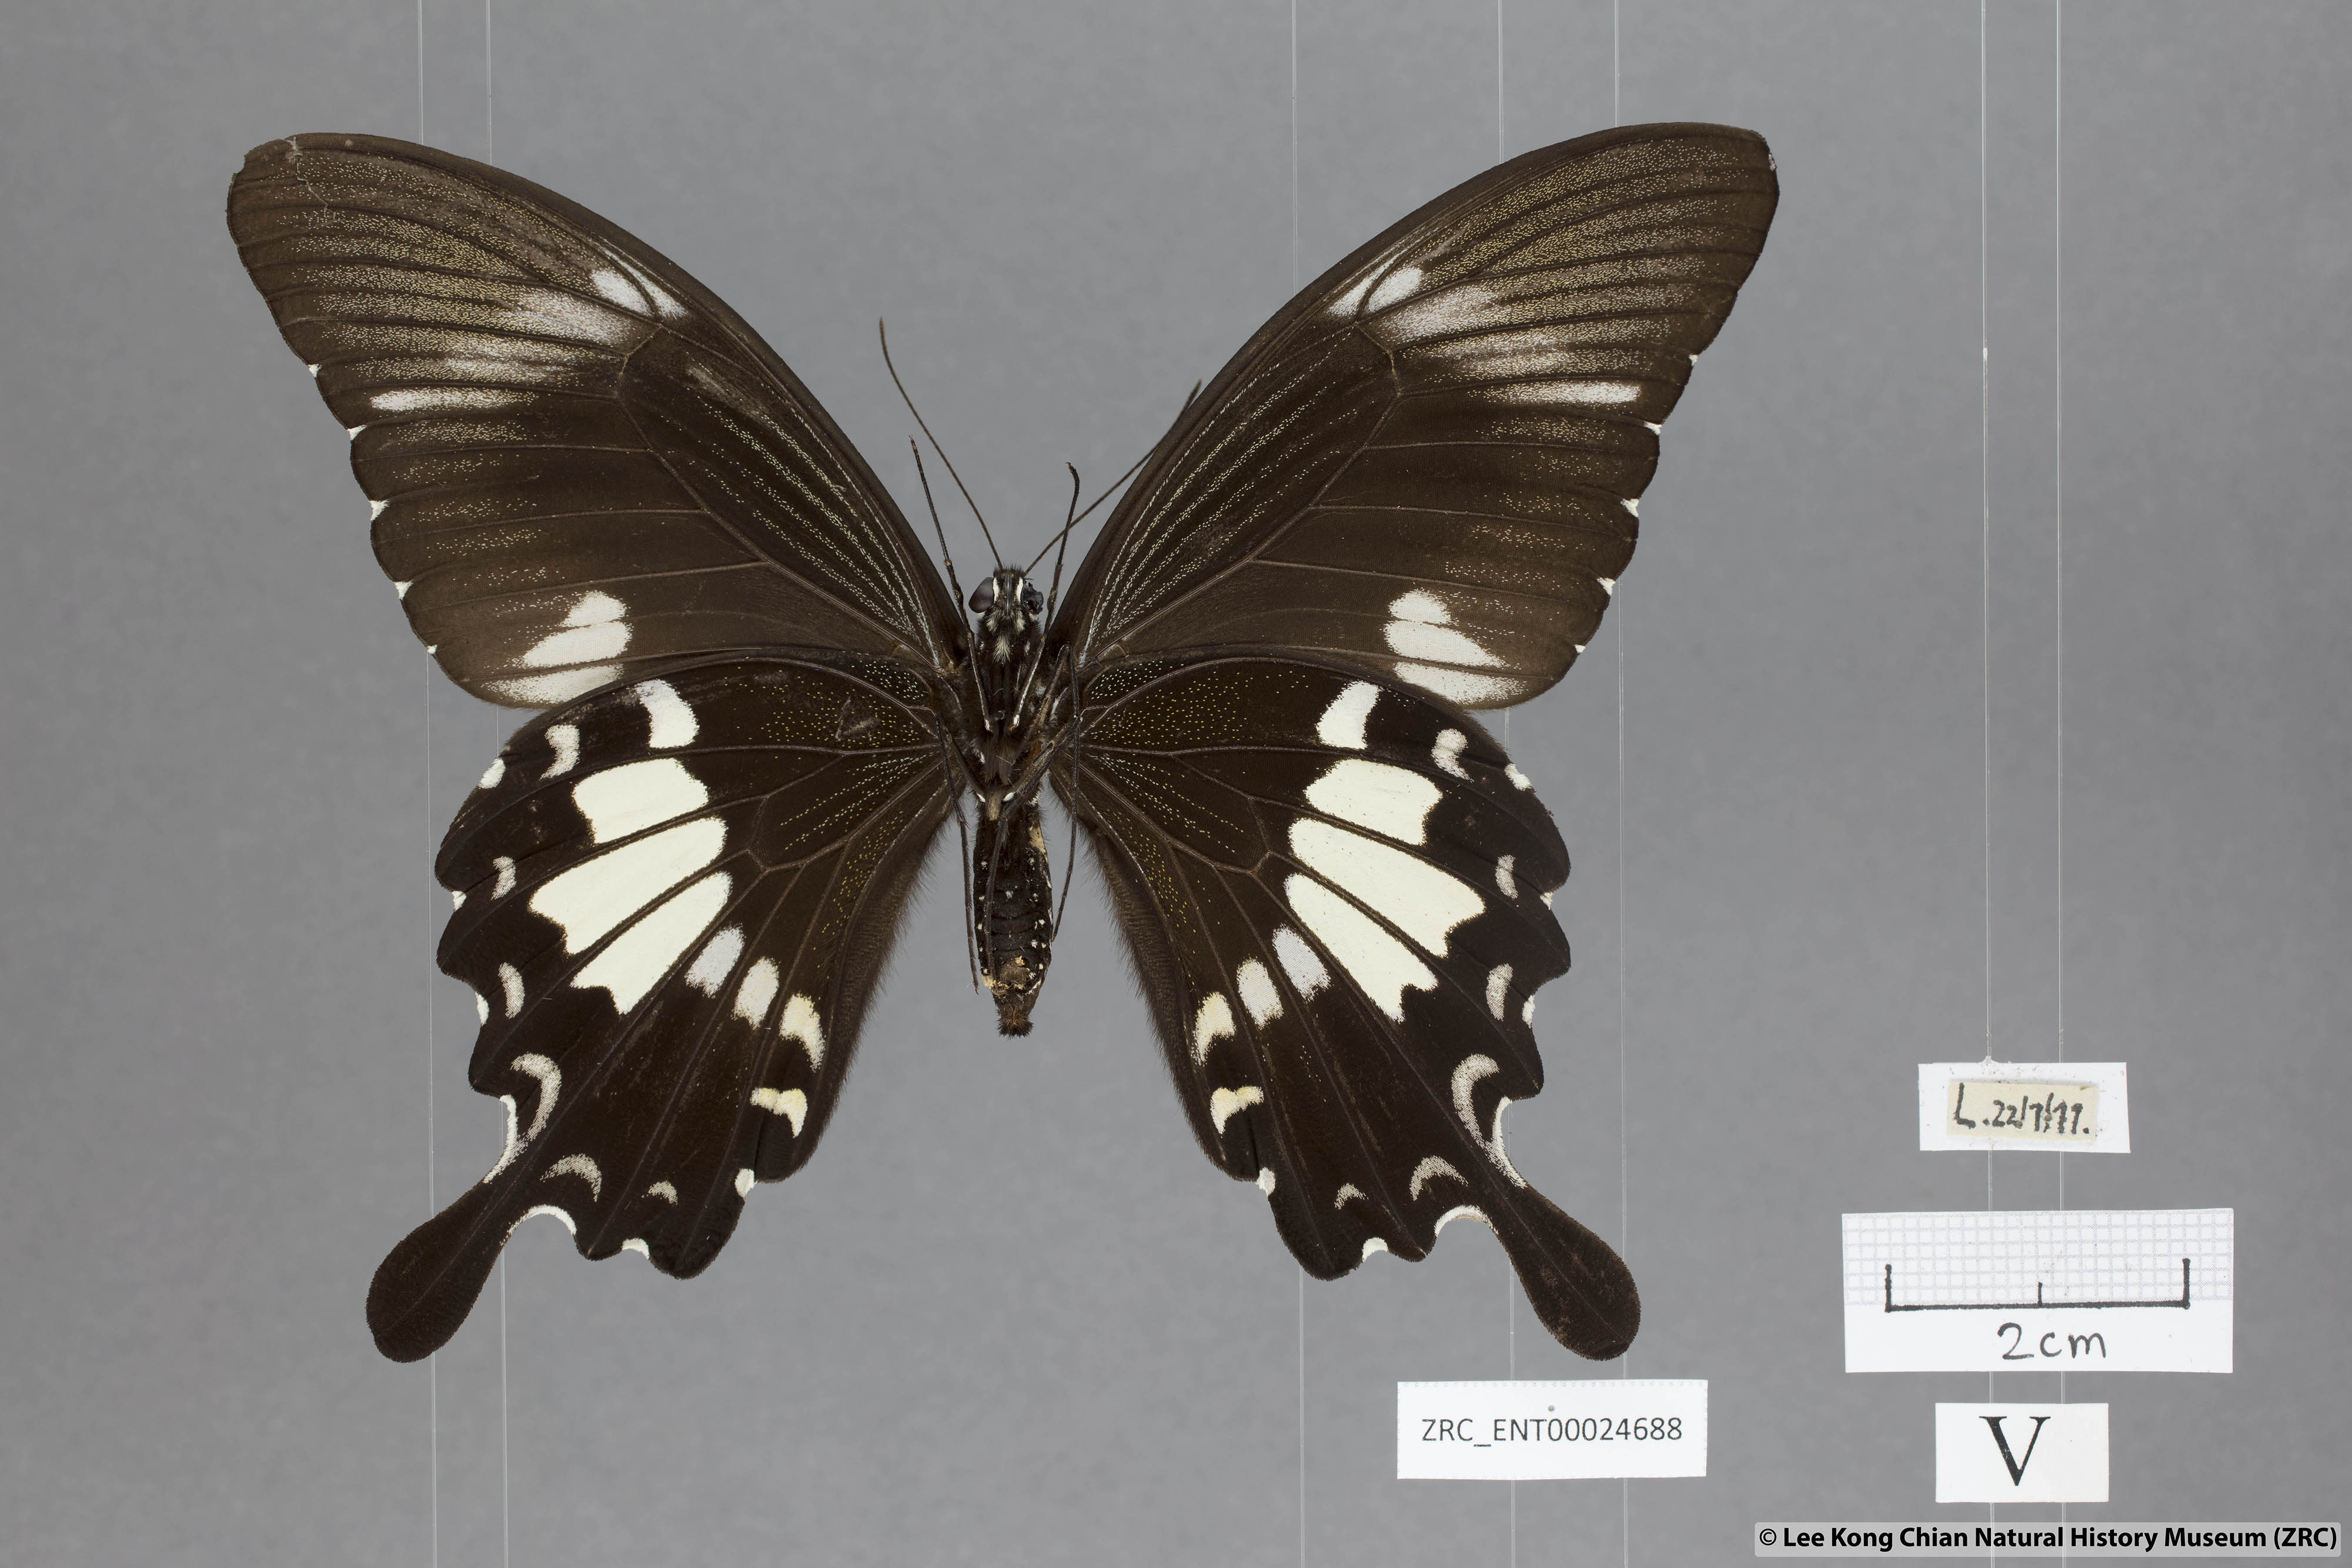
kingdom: Animalia
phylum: Arthropoda
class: Insecta
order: Lepidoptera
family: Papilionidae
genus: Papilio
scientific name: Papilio nephelus
